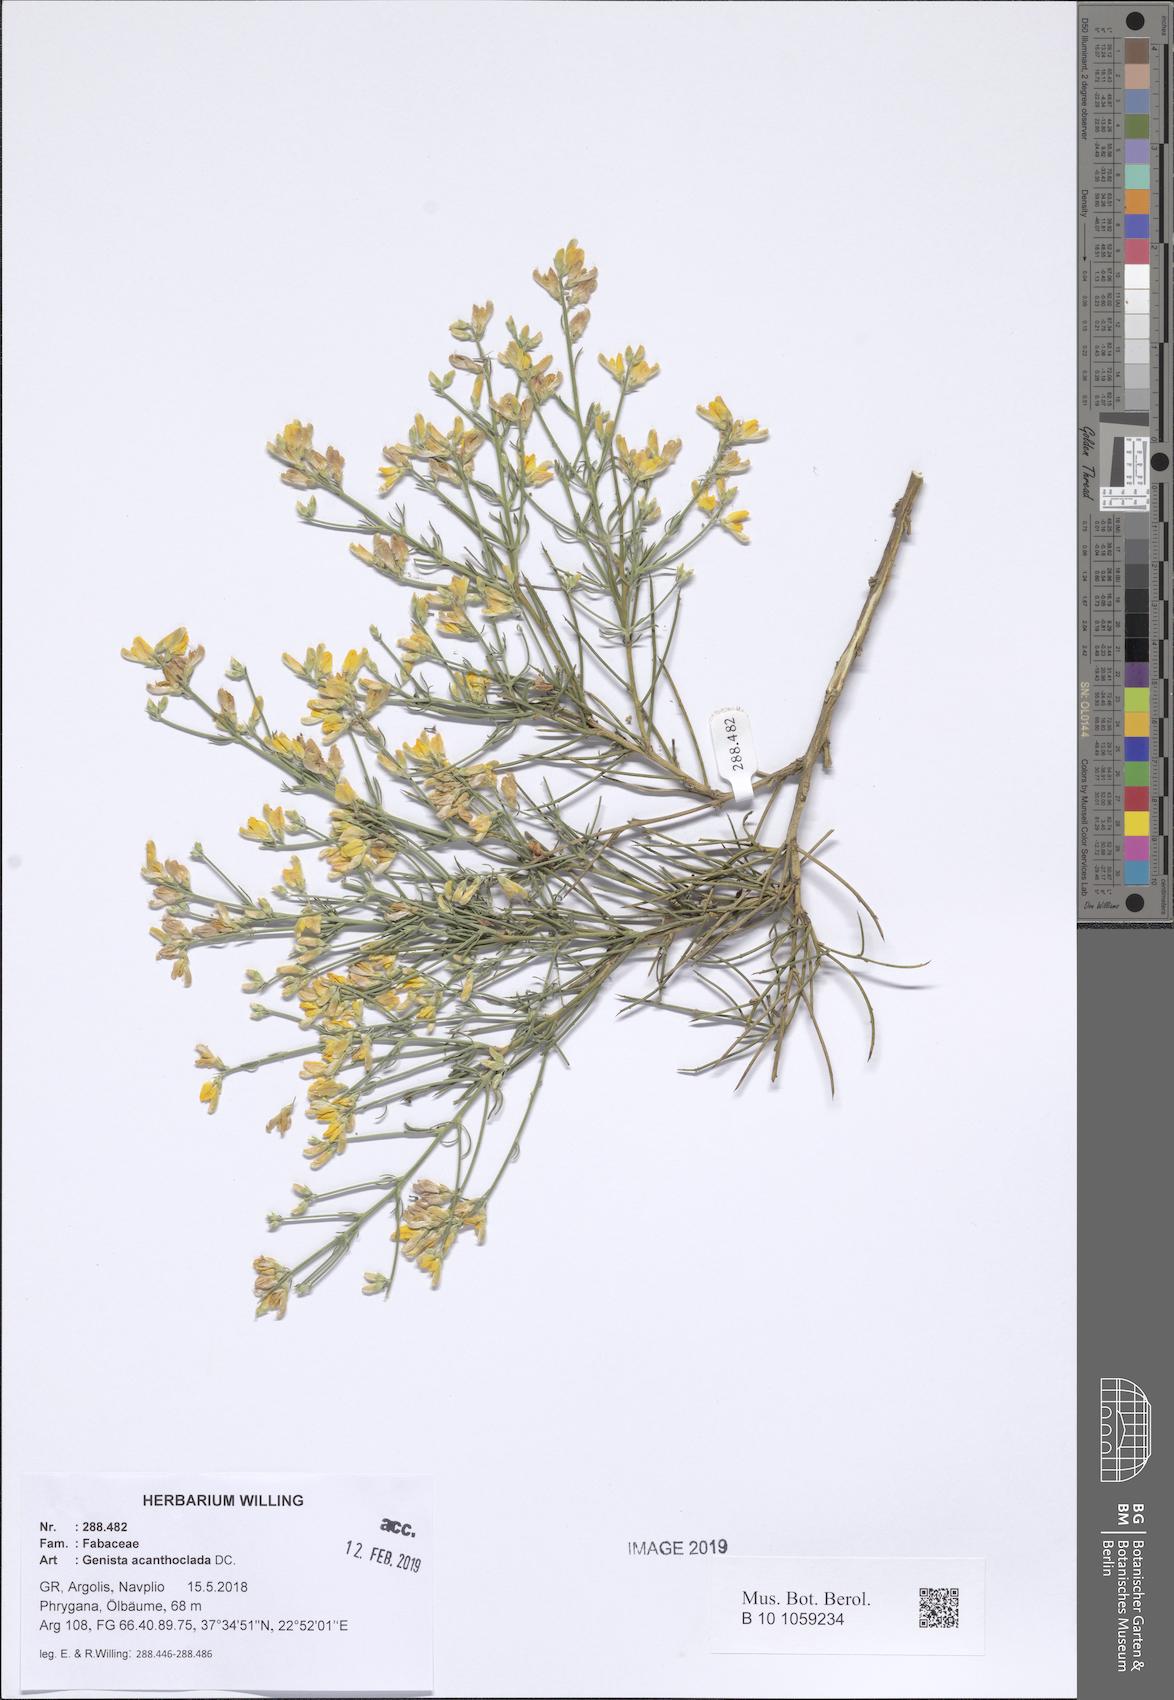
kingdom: Plantae
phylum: Tracheophyta
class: Magnoliopsida
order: Fabales
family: Fabaceae
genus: Genista
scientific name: Genista acanthoclada
